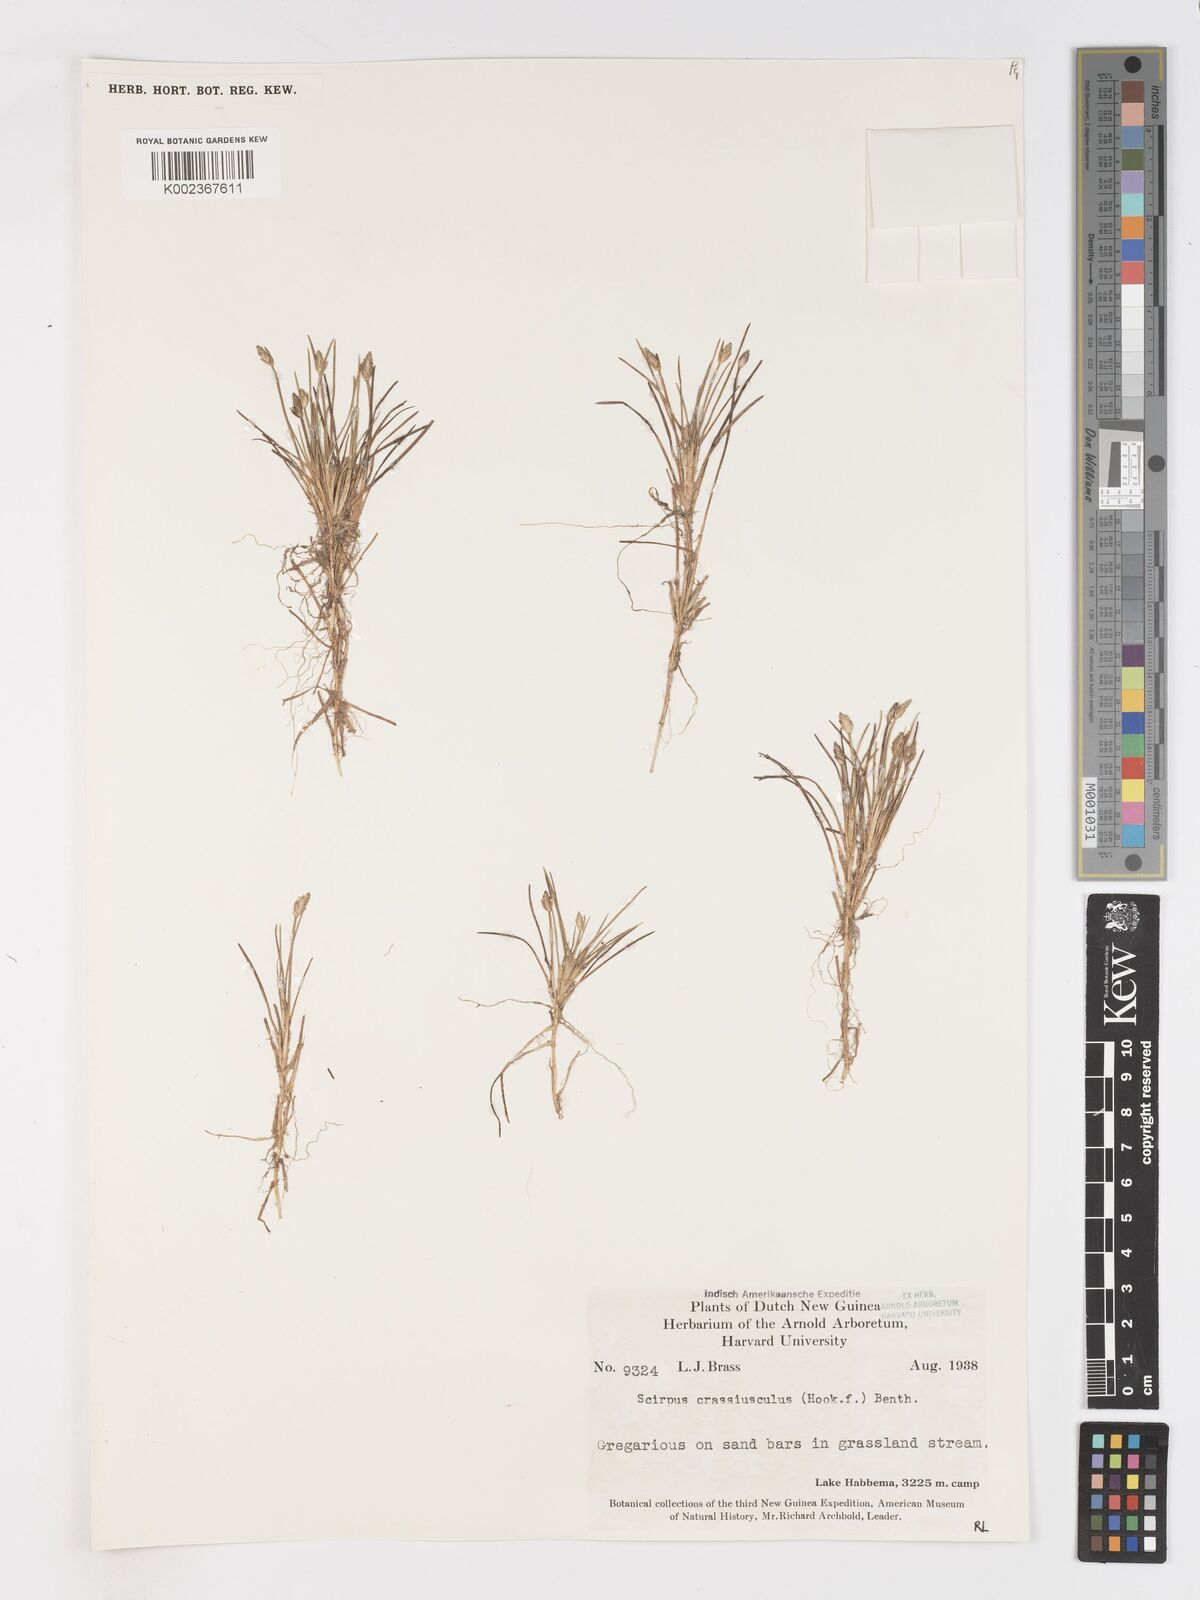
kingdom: Plantae
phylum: Tracheophyta
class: Liliopsida
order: Poales
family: Cyperaceae
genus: Isolepis
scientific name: Isolepis crassiuscula
